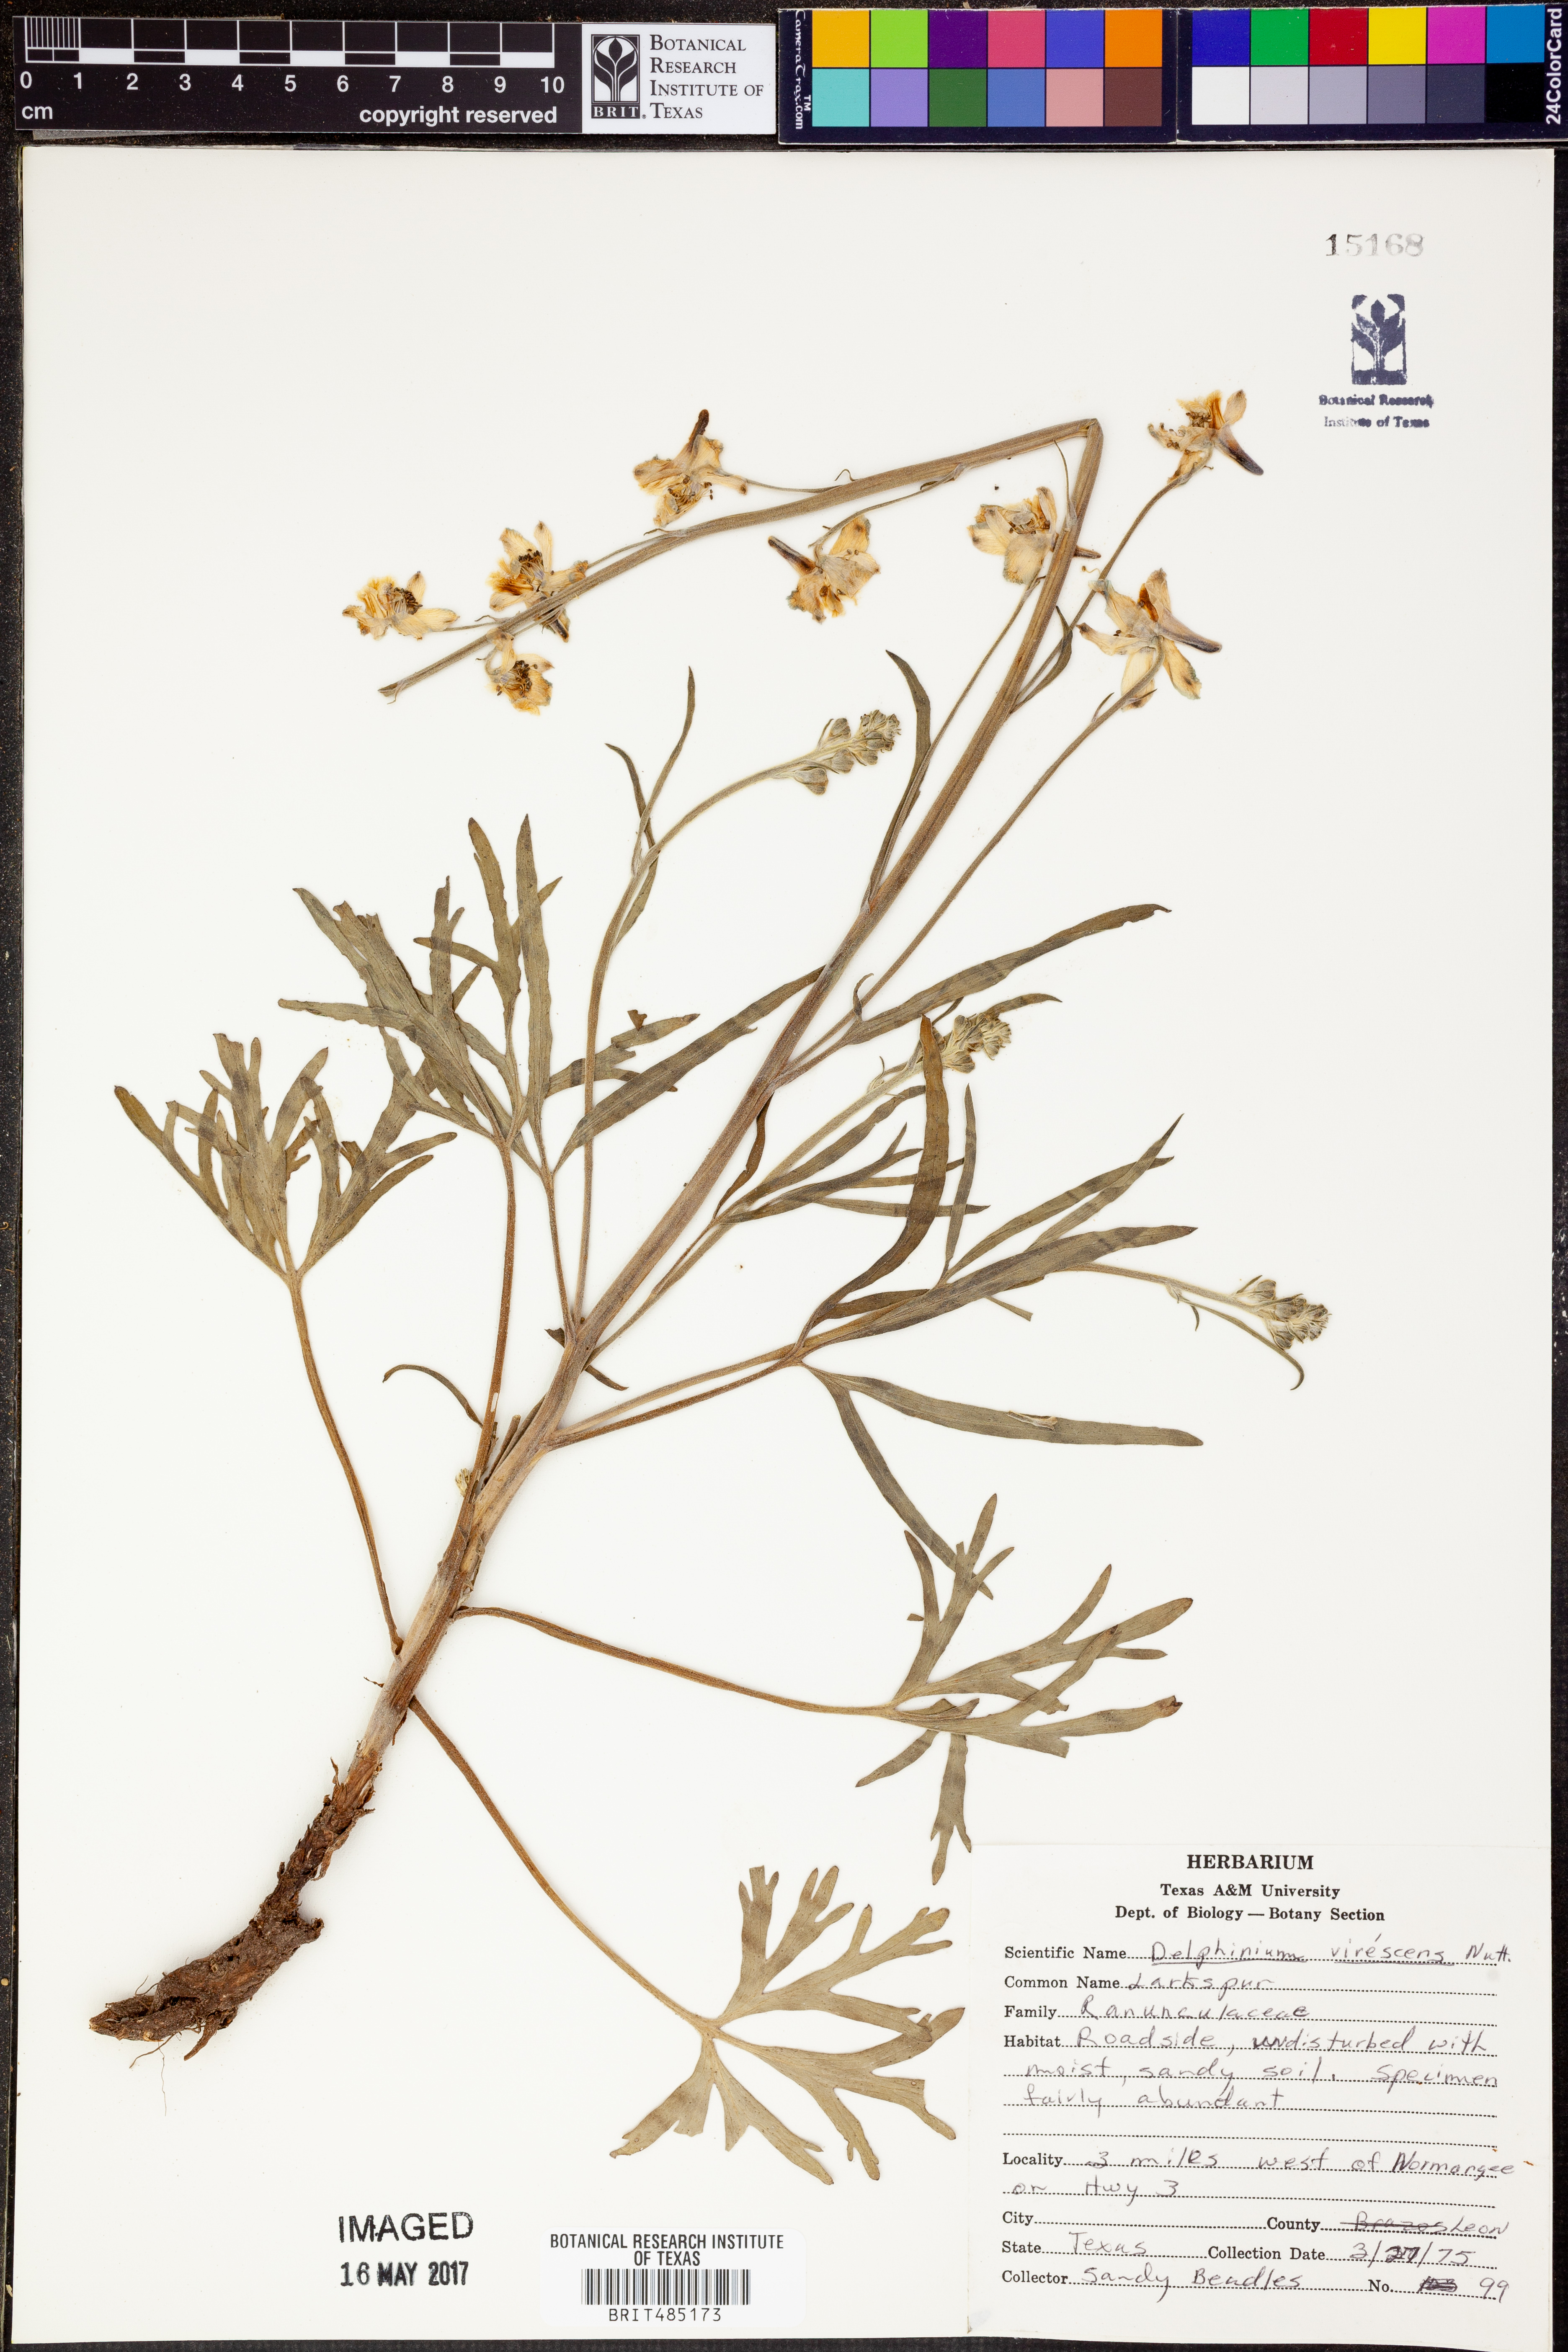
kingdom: Plantae
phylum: Tracheophyta
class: Magnoliopsida
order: Ranunculales
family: Ranunculaceae
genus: Delphinium
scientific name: Delphinium carolinianum
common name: Carolina larkspur
